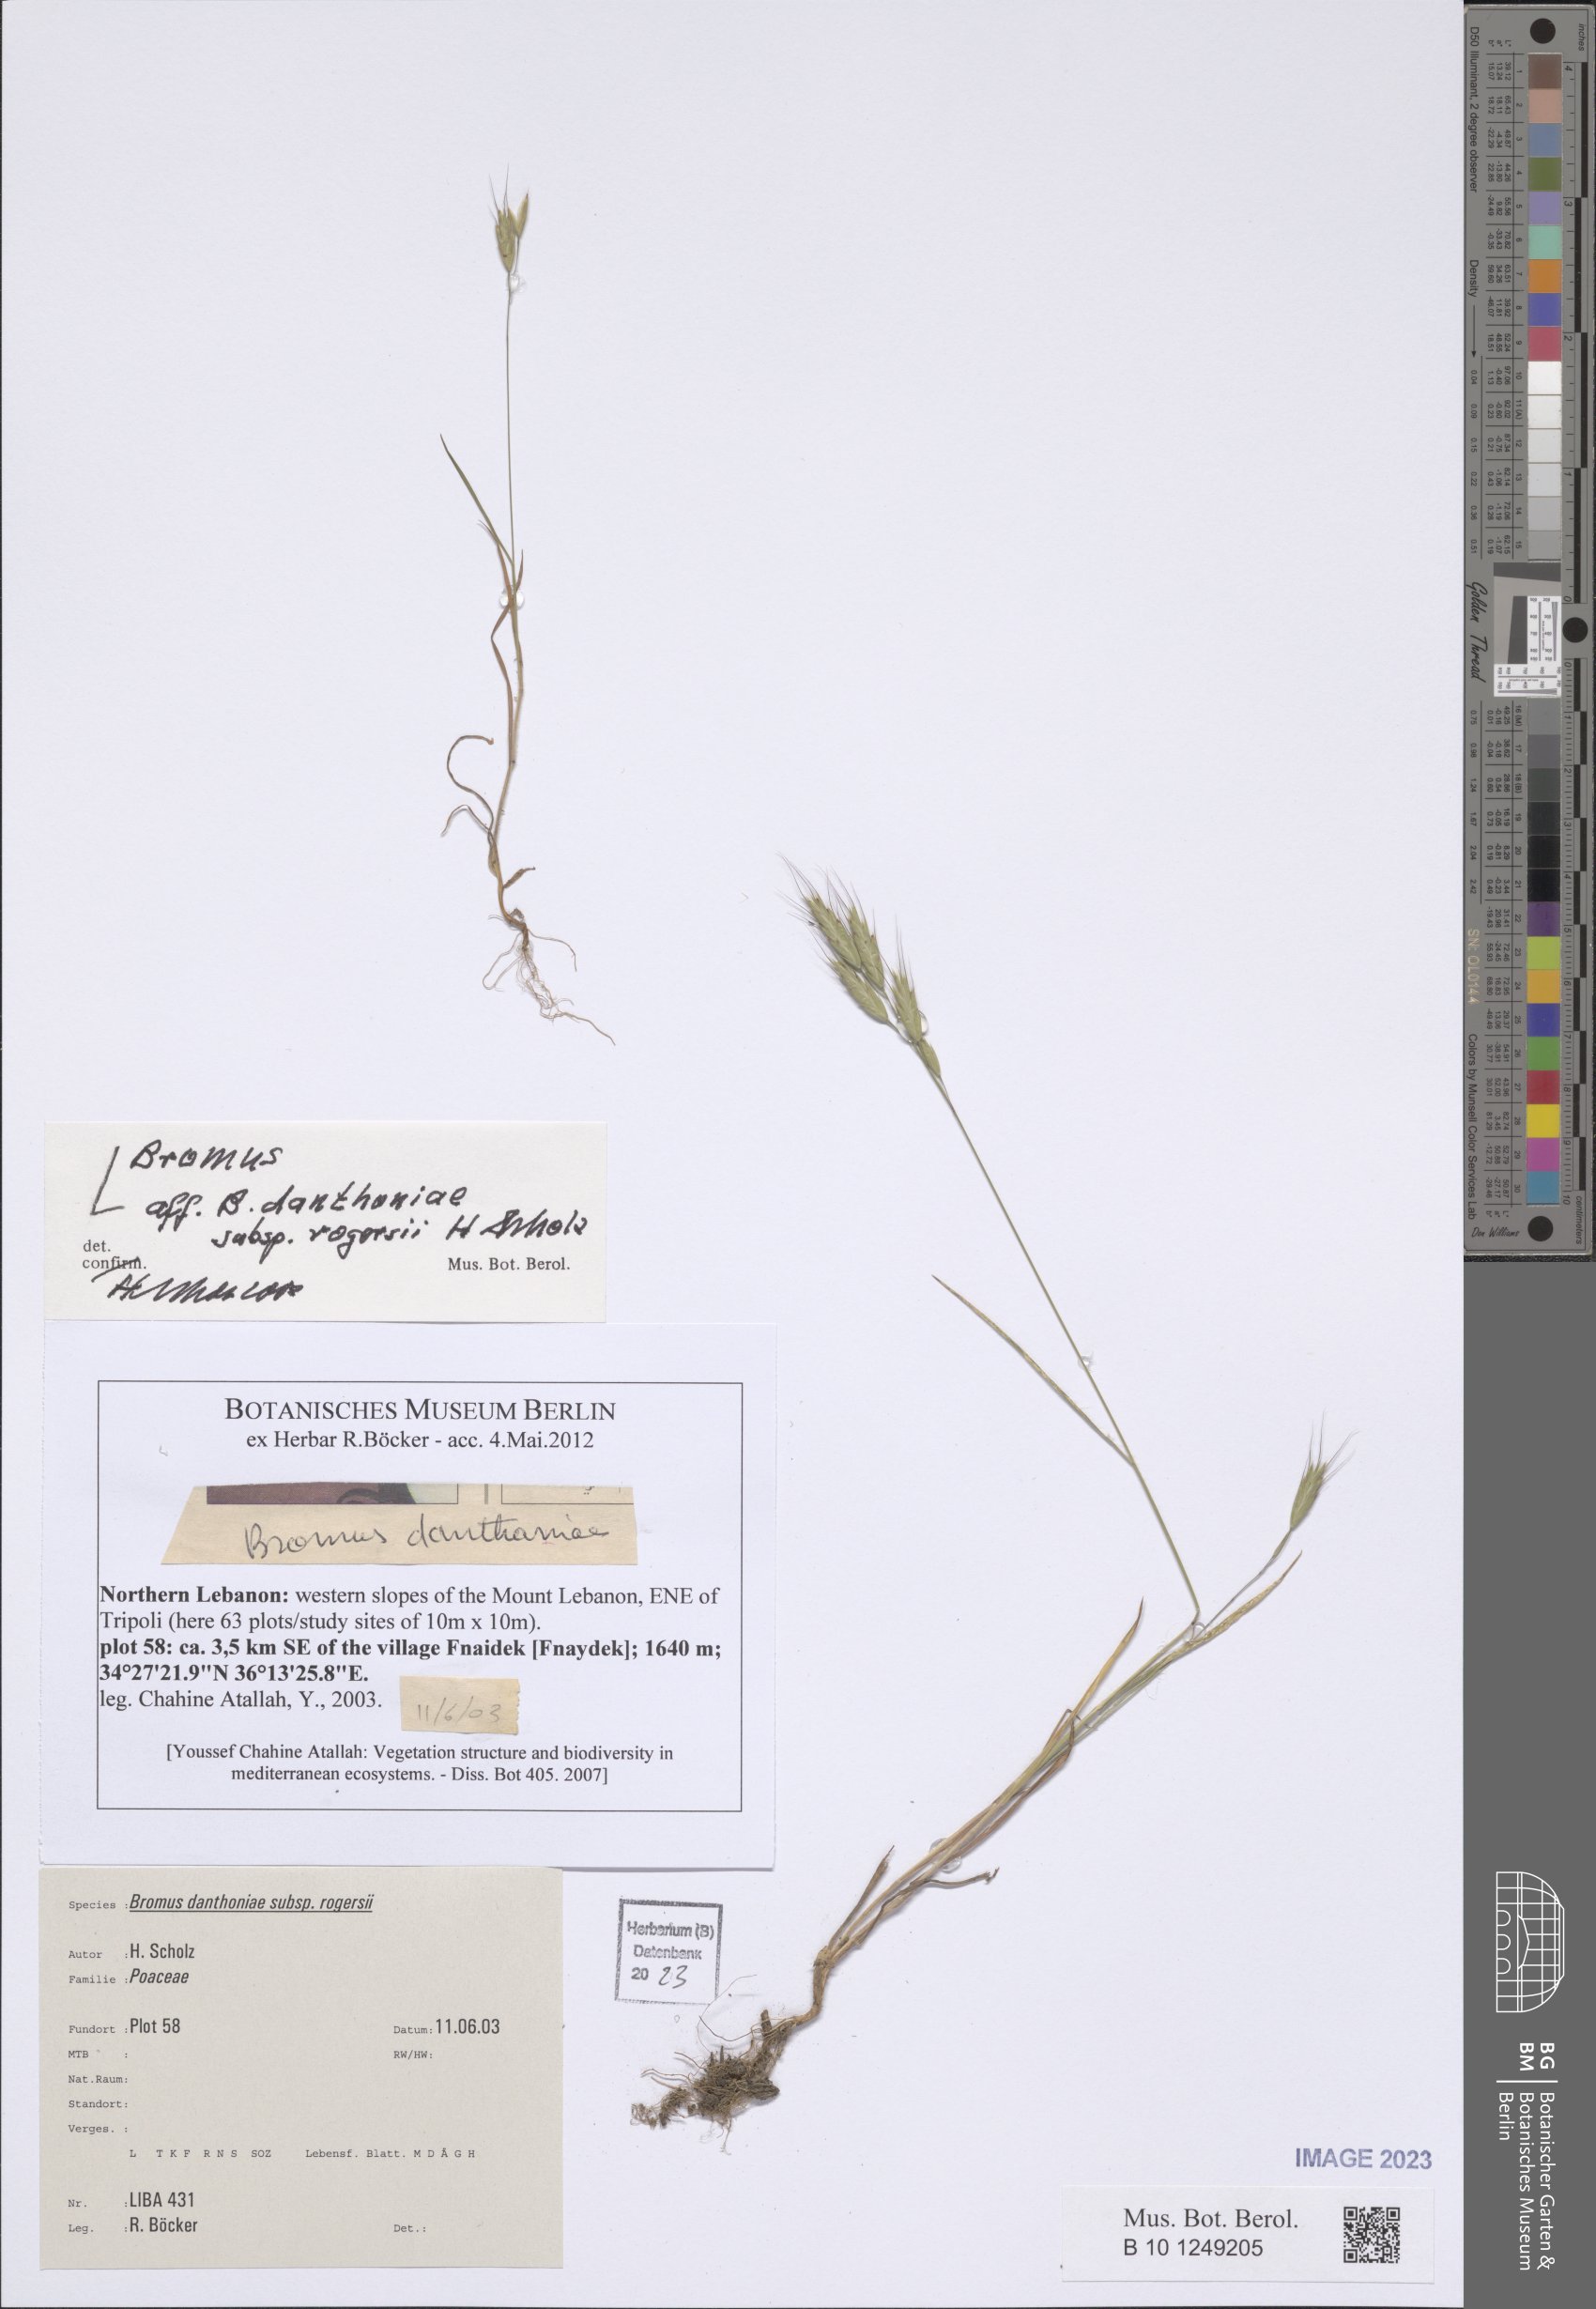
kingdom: Plantae
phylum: Tracheophyta
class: Liliopsida
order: Poales
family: Poaceae
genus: Bromus
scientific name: Bromus danthoniae
